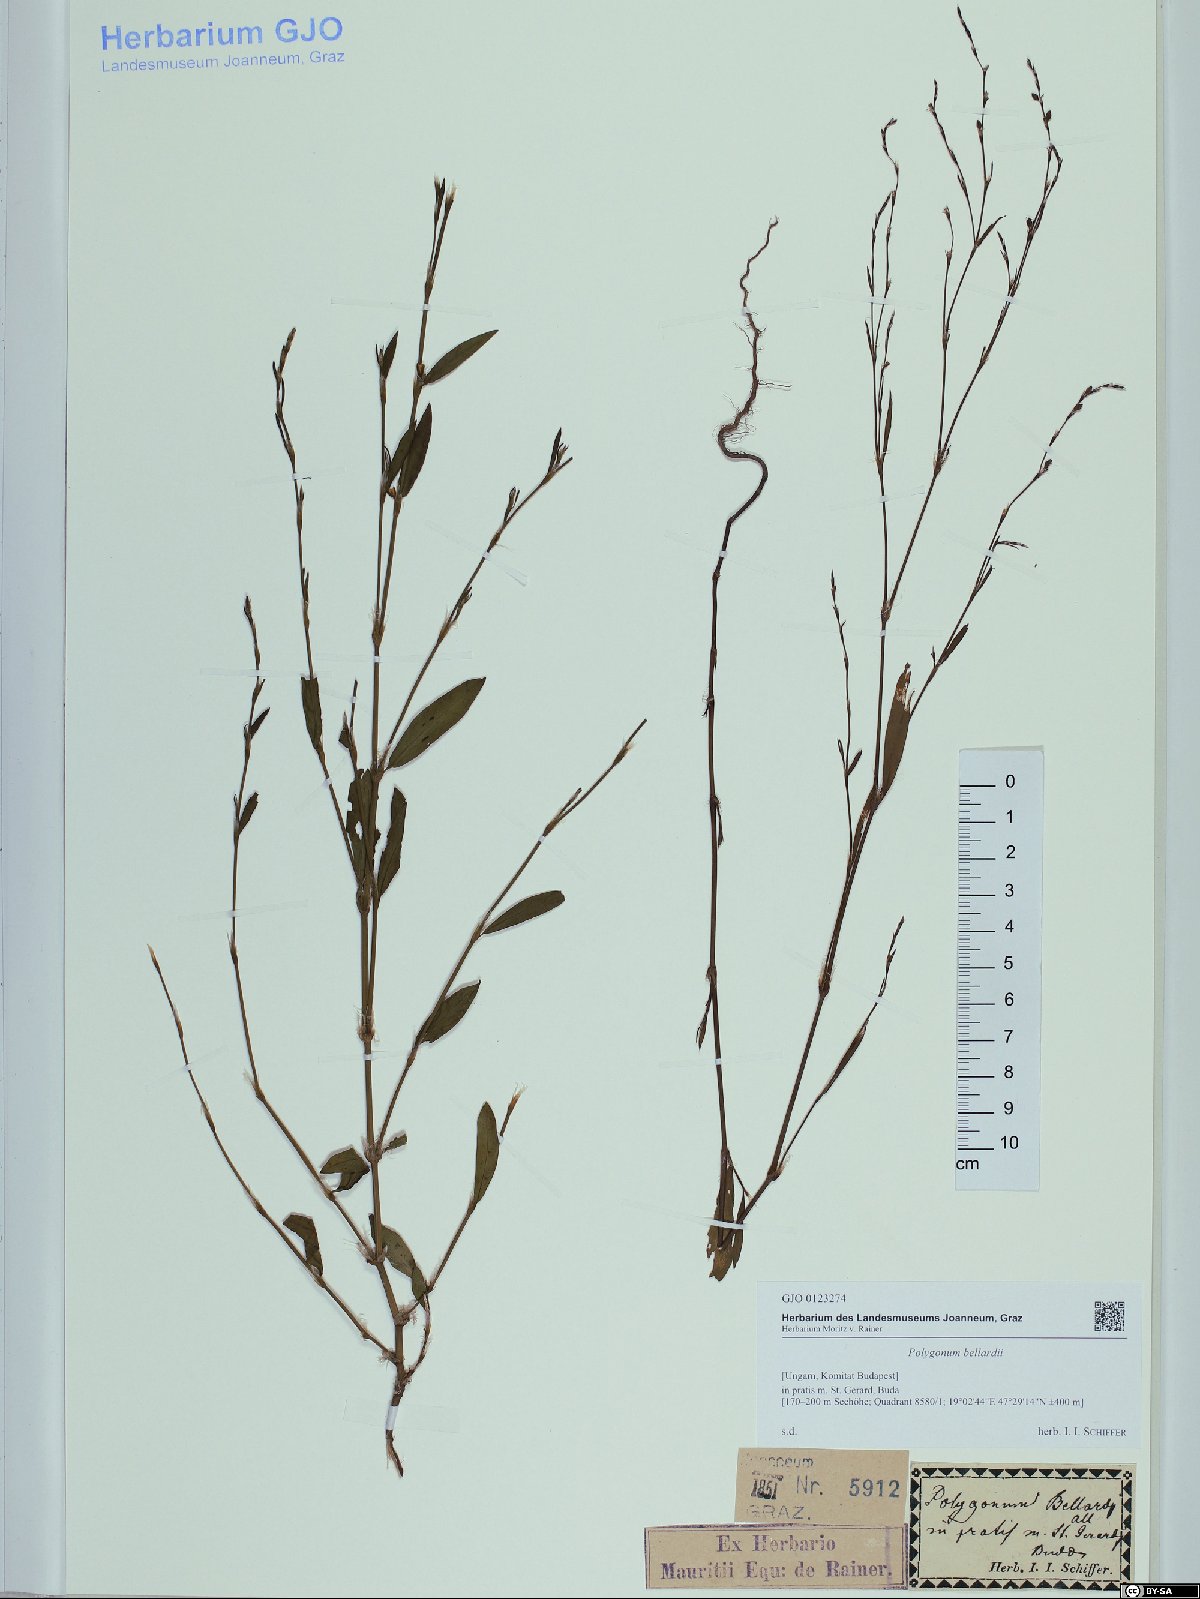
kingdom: Plantae
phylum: Tracheophyta
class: Magnoliopsida
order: Caryophyllales
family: Polygonaceae
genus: Polygonum
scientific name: Polygonum bellardii
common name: Narrowleaf knotweed
